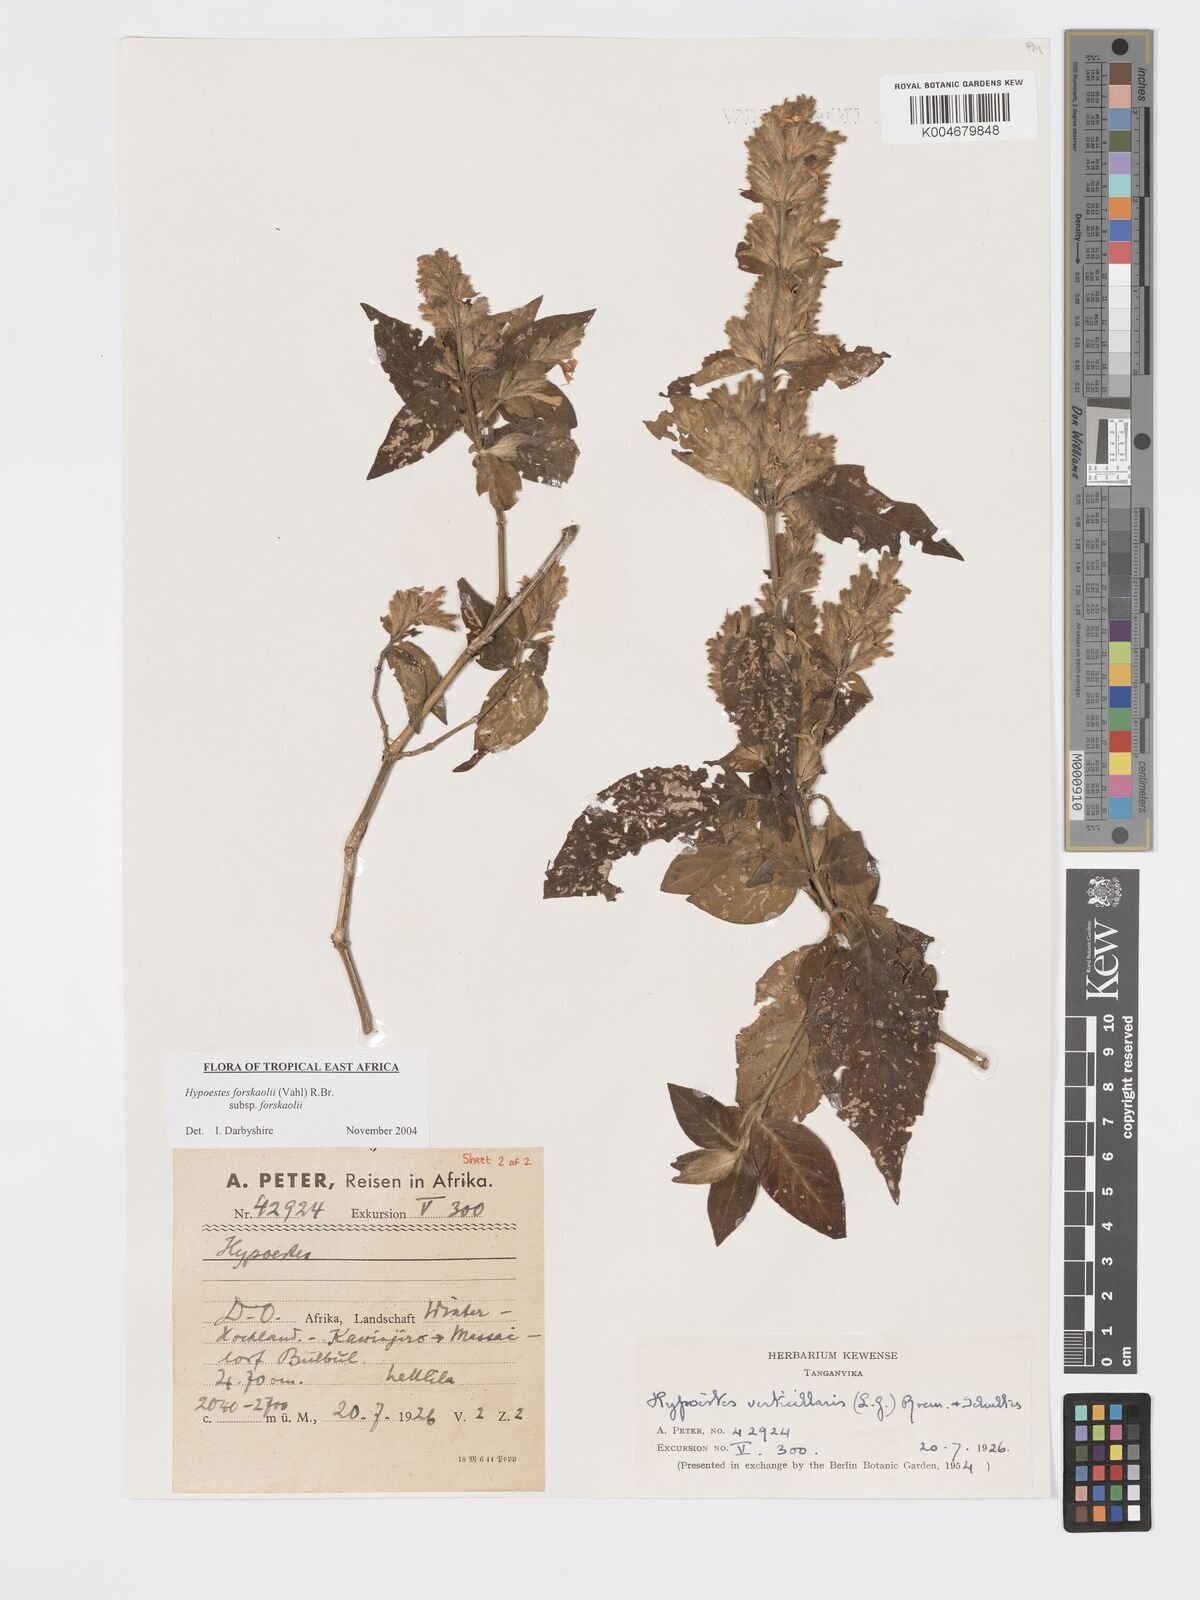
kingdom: Plantae
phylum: Tracheophyta
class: Magnoliopsida
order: Lamiales
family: Acanthaceae
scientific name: Acanthaceae
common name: Acanthaceae
